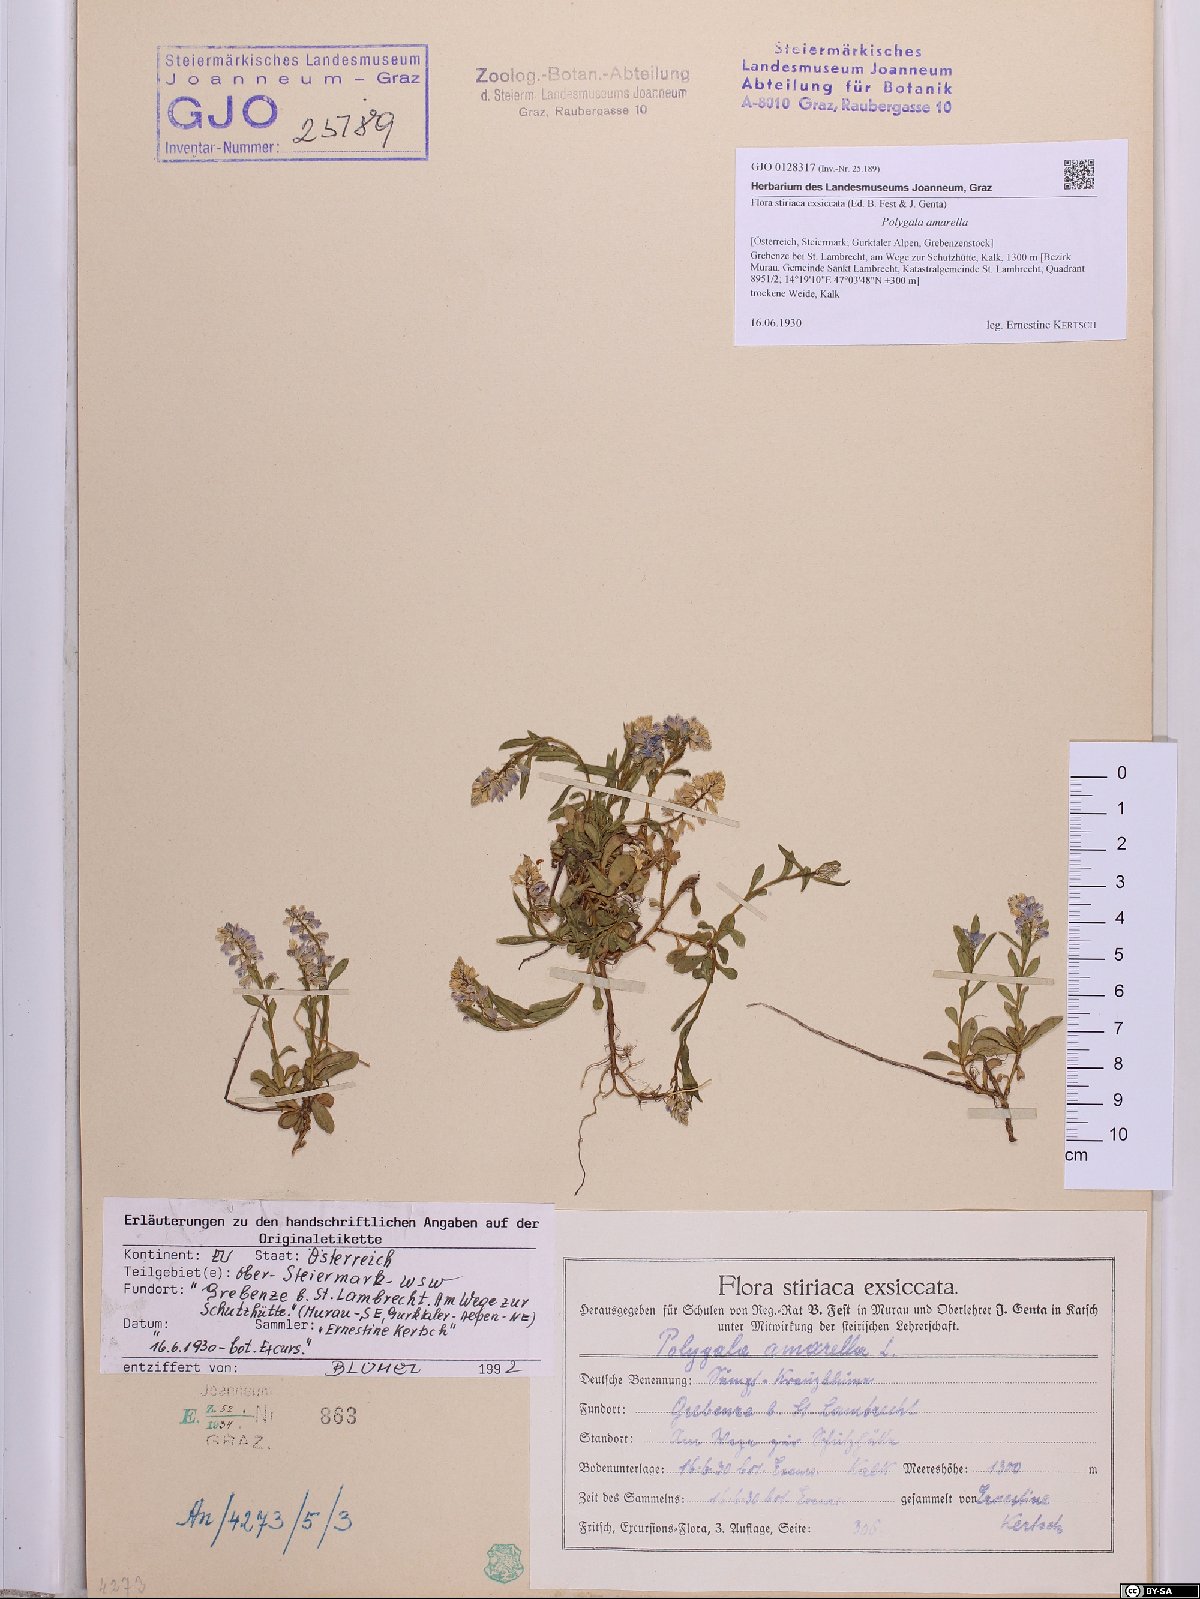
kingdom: Plantae
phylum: Tracheophyta
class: Magnoliopsida
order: Fabales
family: Polygalaceae
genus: Polygala
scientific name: Polygala amarella
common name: Dwarf milkwort
